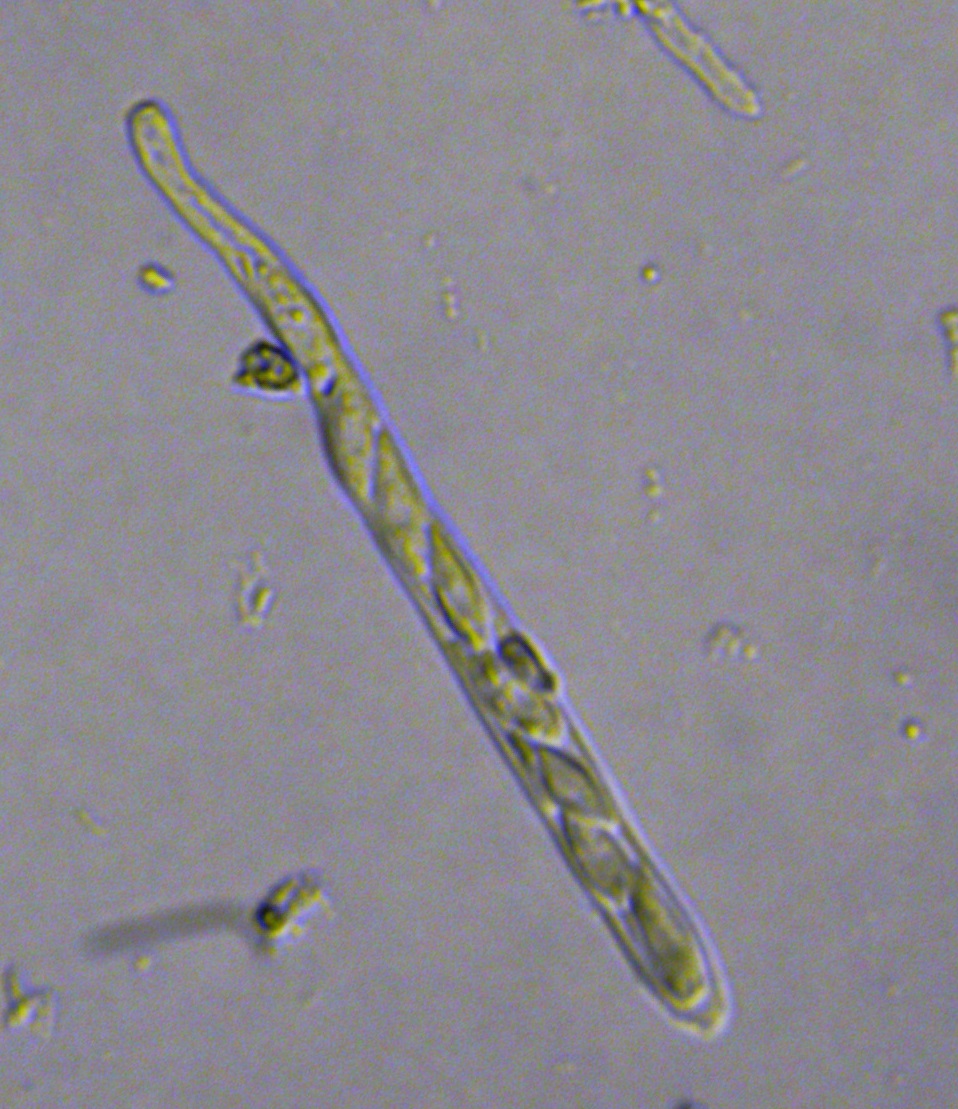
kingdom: Fungi
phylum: Ascomycota
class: Leotiomycetes
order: Helotiales
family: Helotiaceae
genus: Hymenoscyphus
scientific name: Hymenoscyphus rokebyensis
